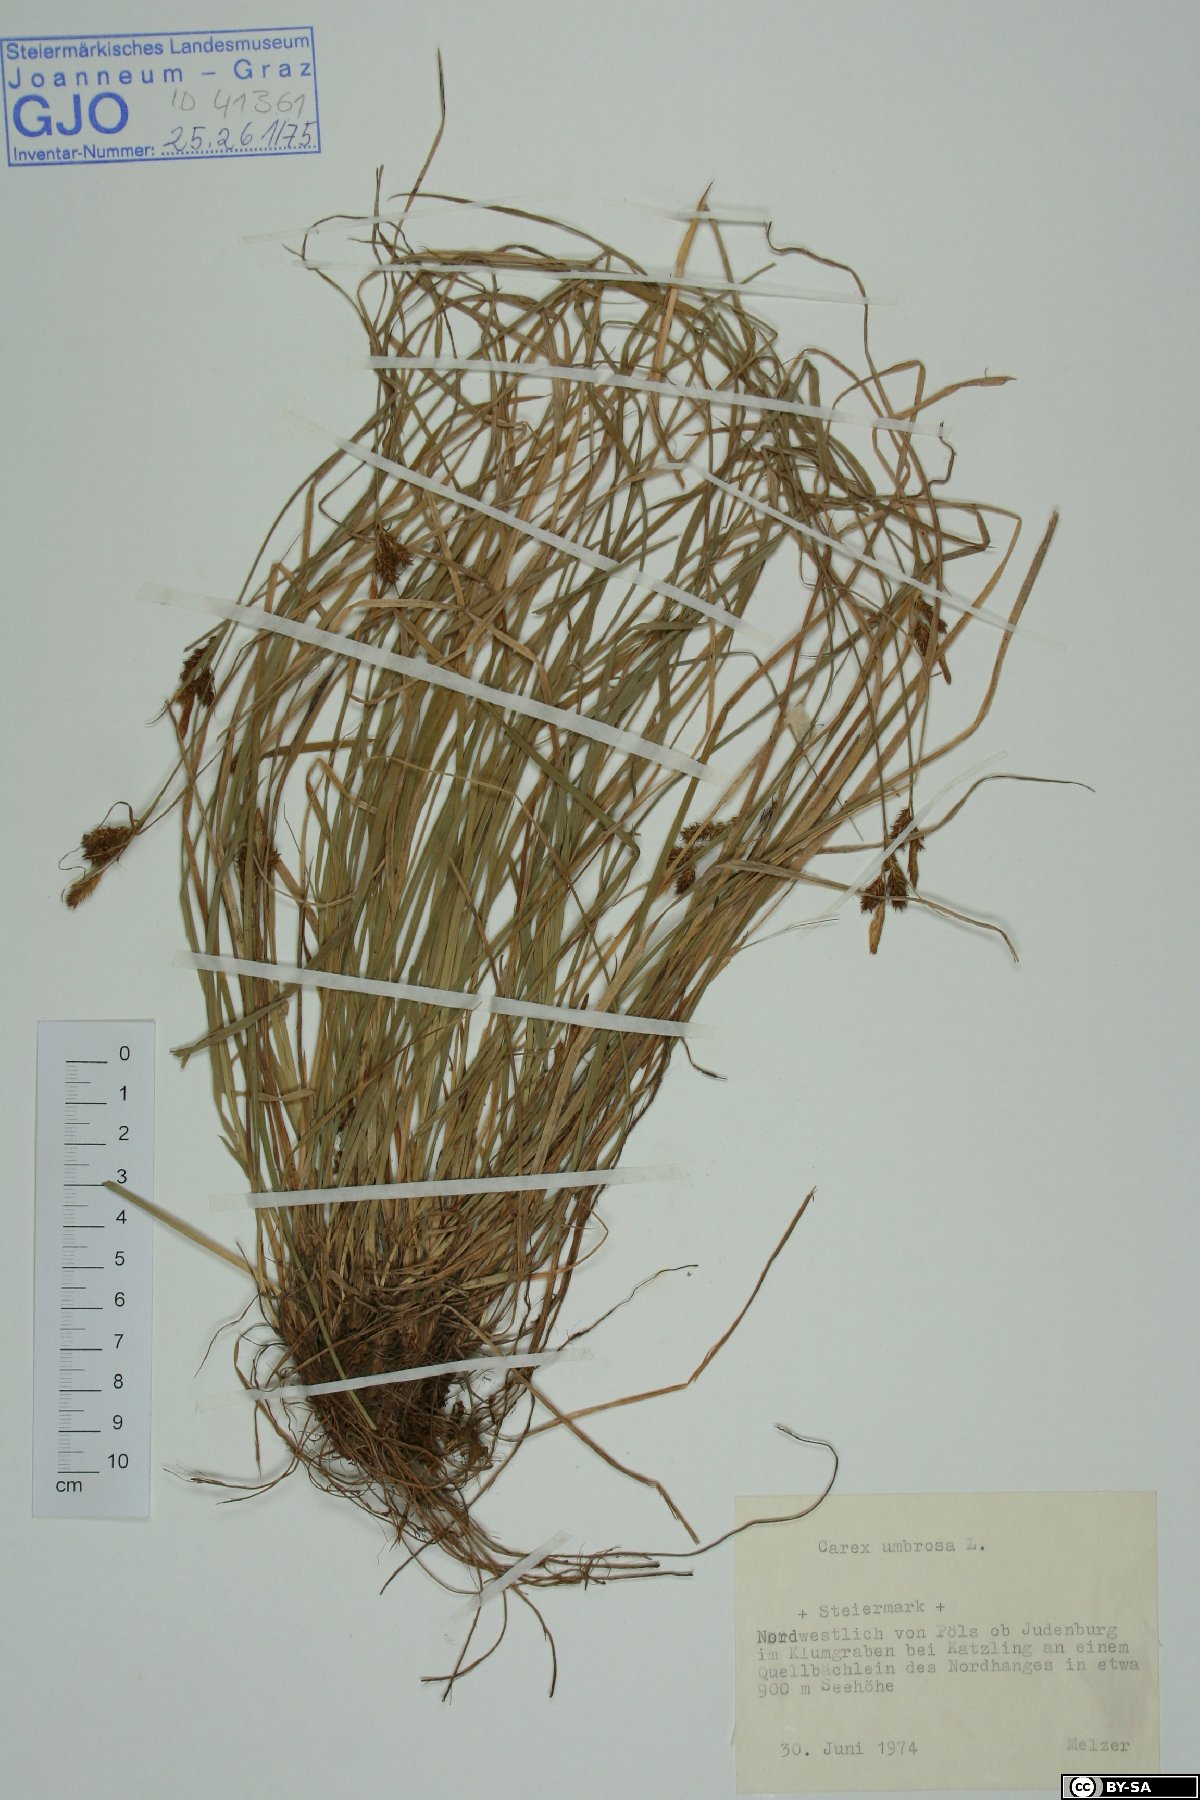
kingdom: Plantae
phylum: Tracheophyta
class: Liliopsida
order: Poales
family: Cyperaceae
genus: Carex
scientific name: Carex umbrosa
